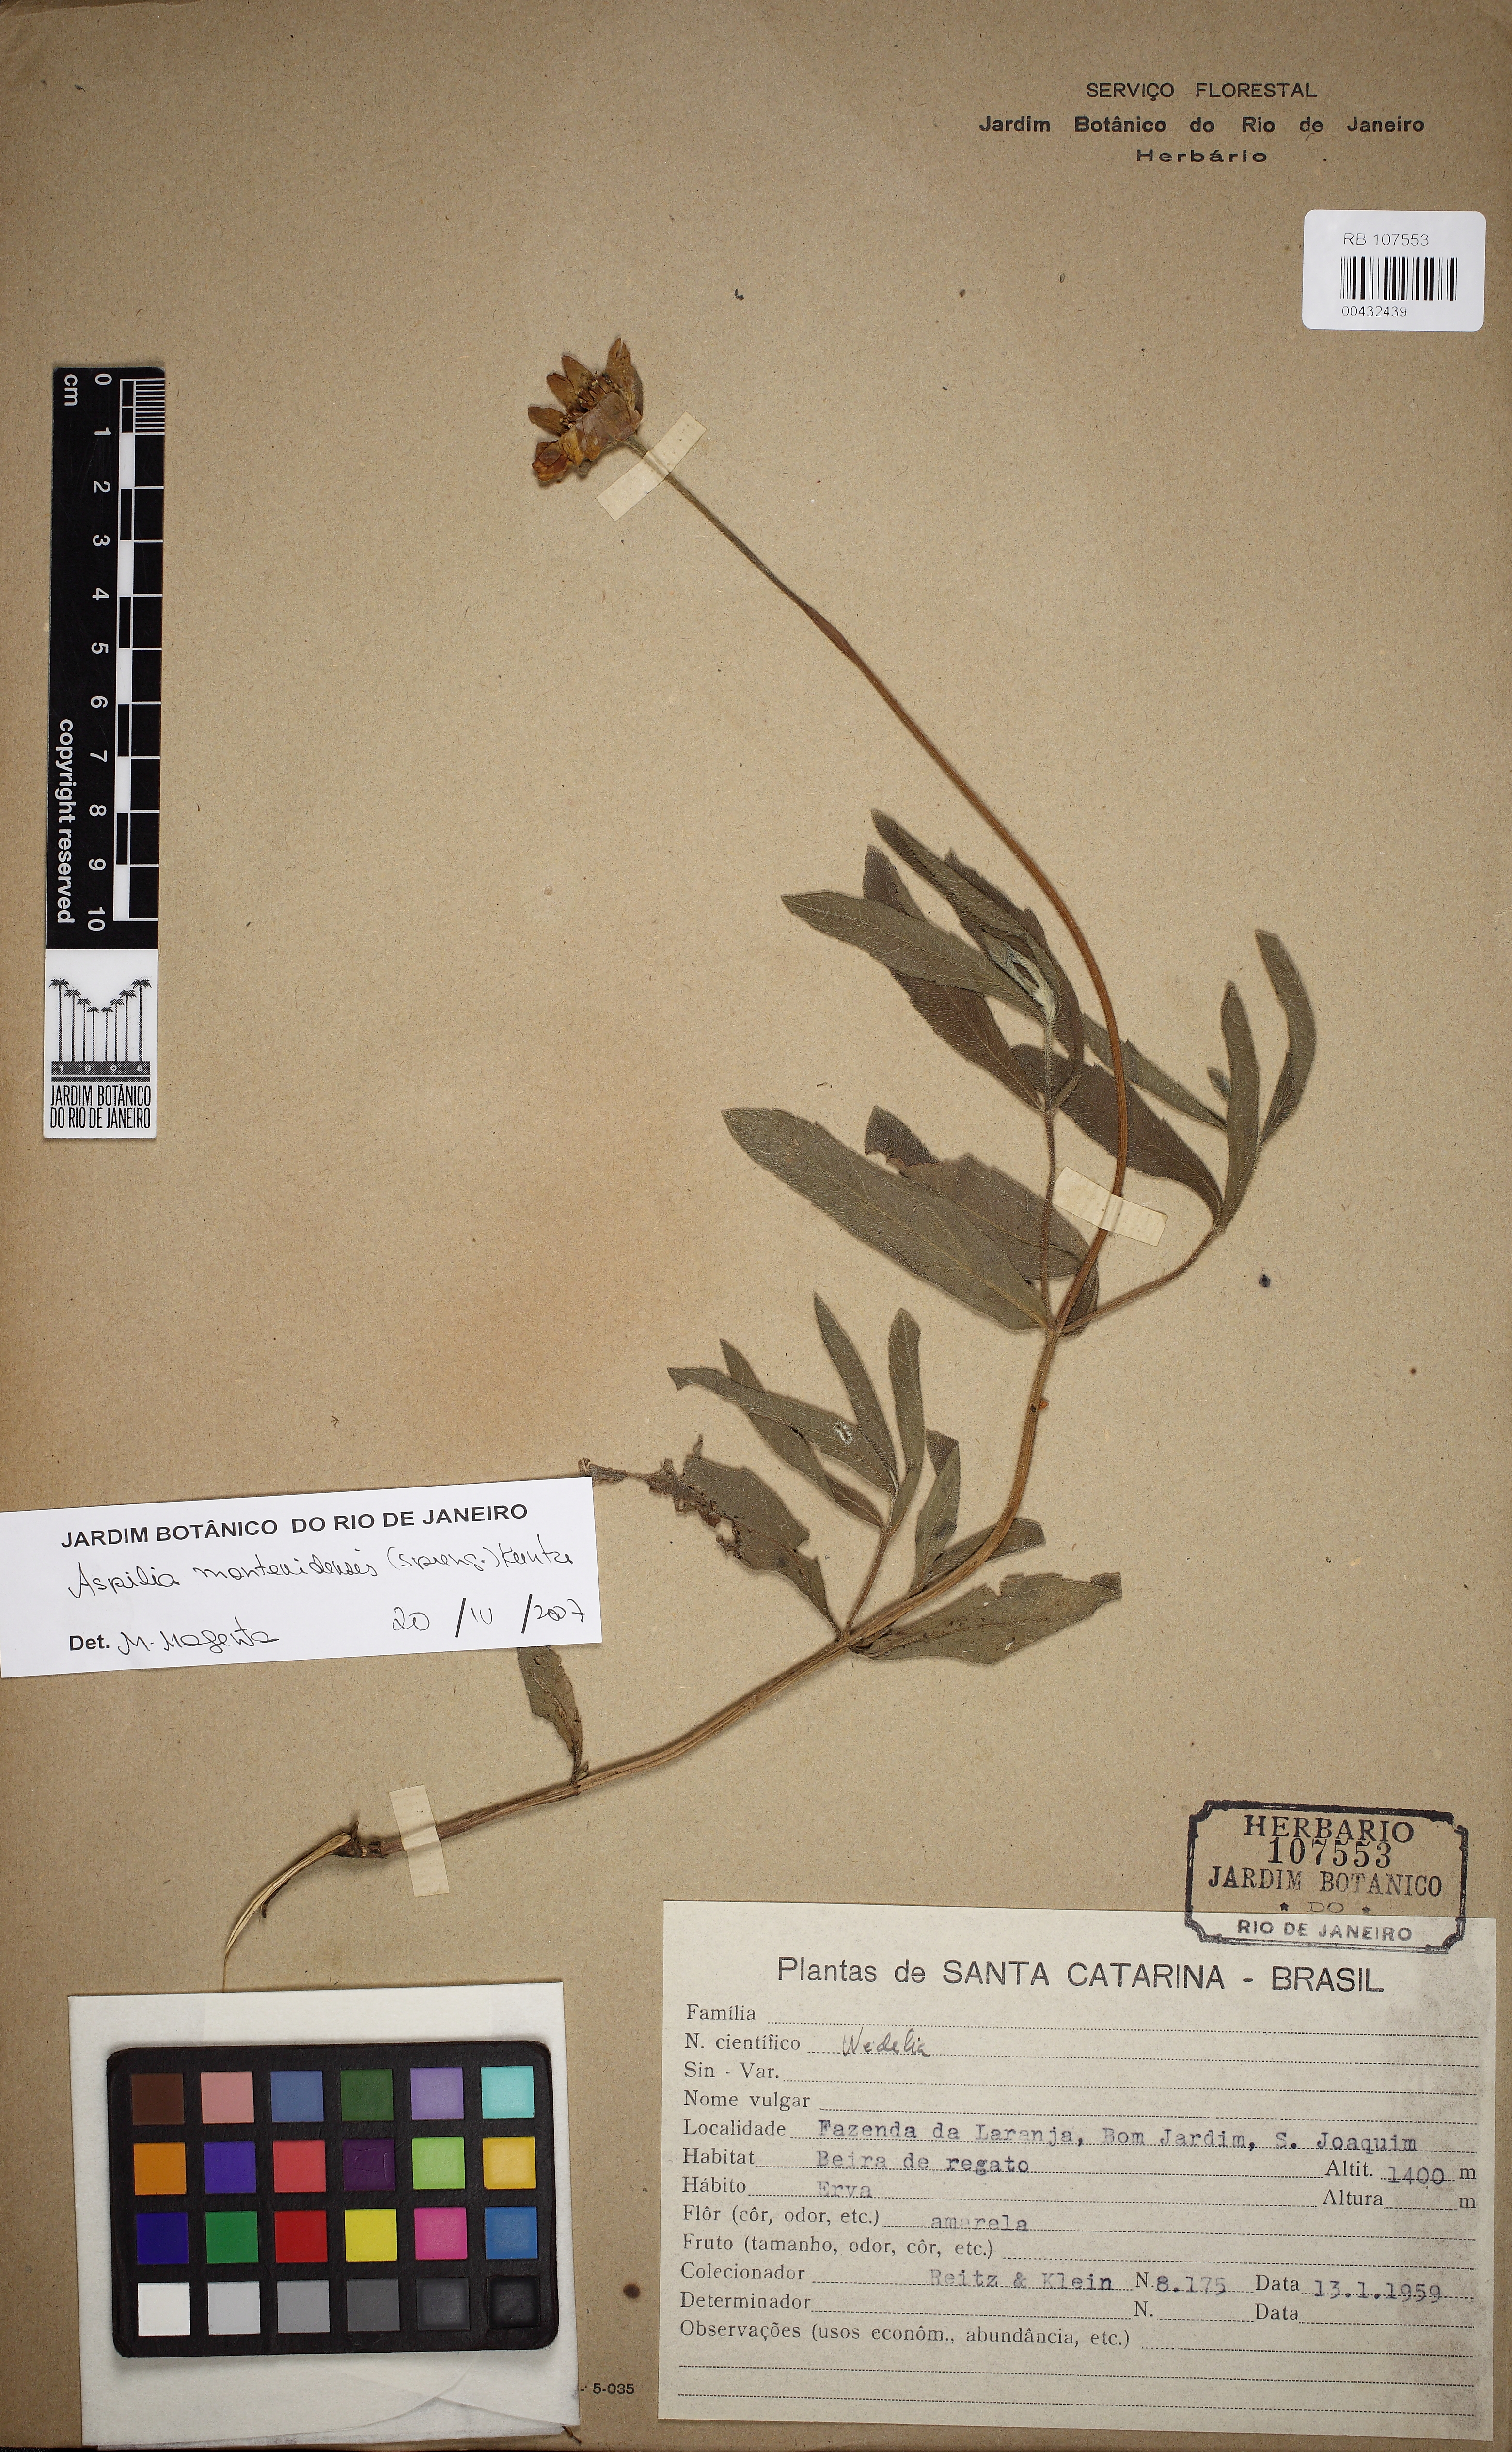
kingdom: Plantae
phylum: Tracheophyta
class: Magnoliopsida
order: Asterales
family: Asteraceae
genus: Wedelia
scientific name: Wedelia montevidensis
